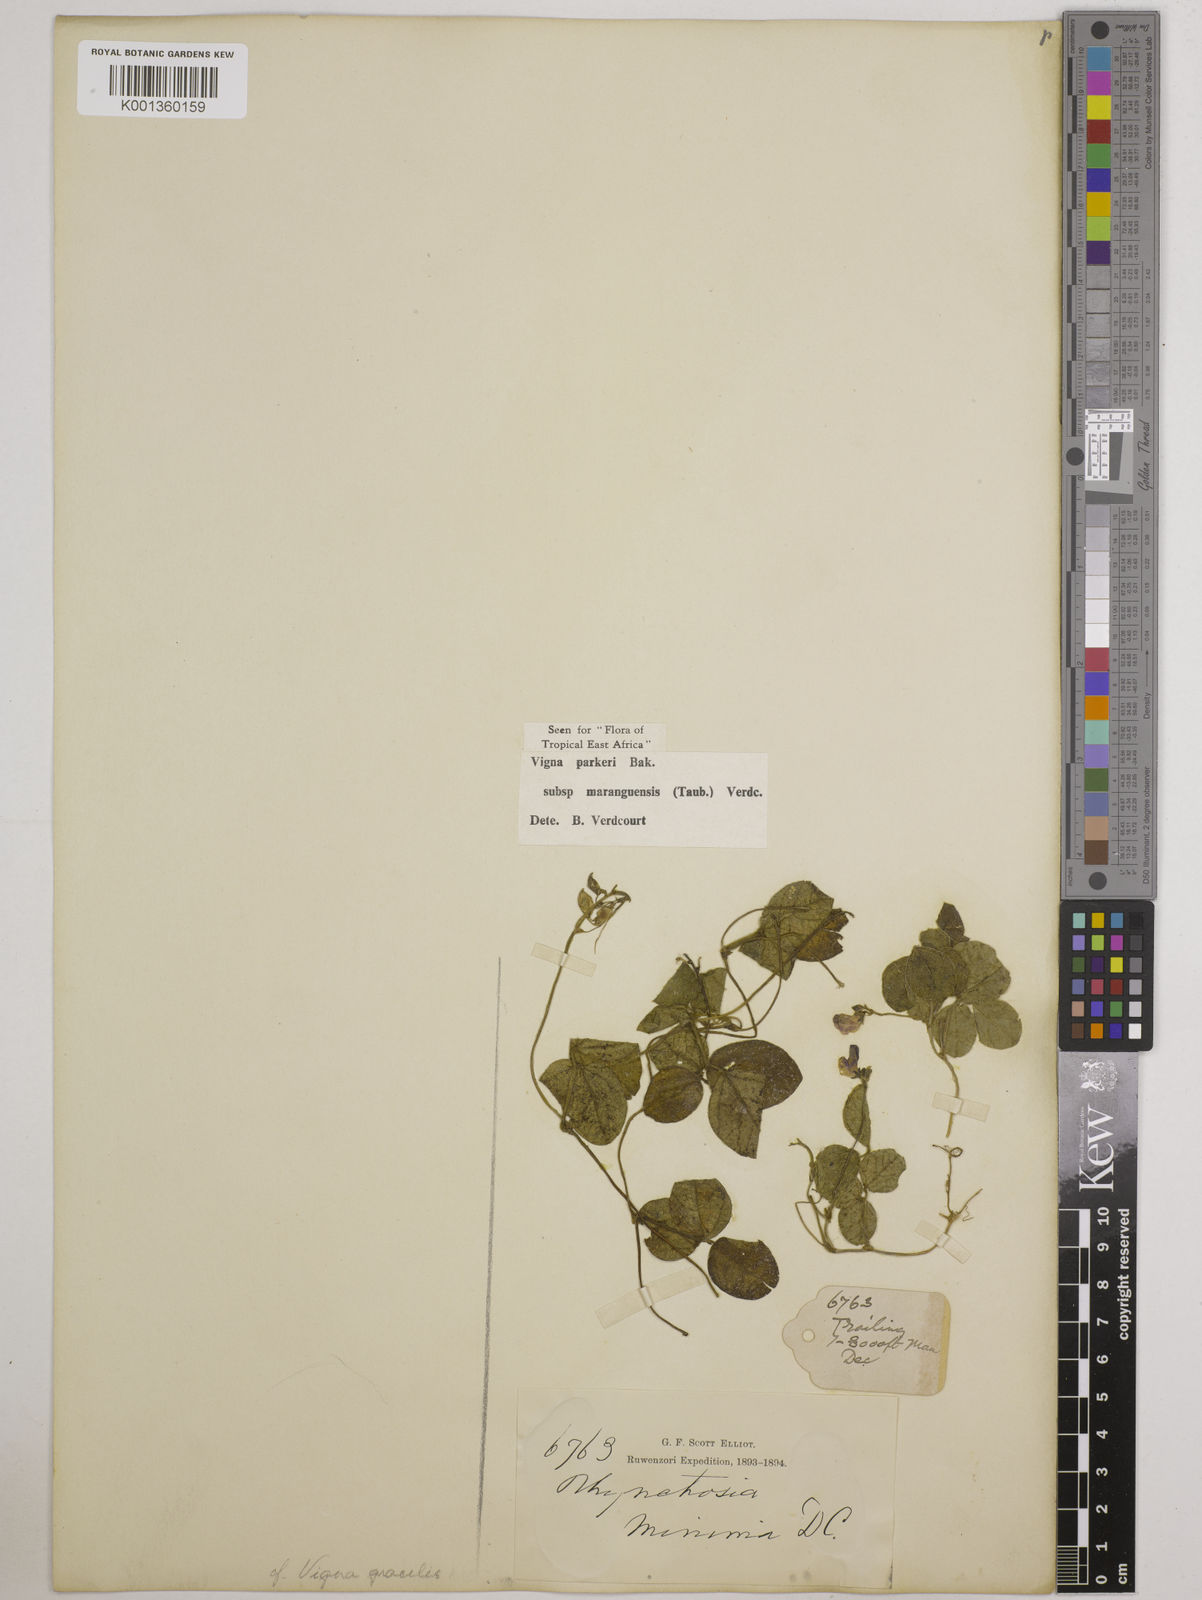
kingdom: Plantae
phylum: Tracheophyta
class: Magnoliopsida
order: Fabales
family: Fabaceae
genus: Vigna
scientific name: Vigna
